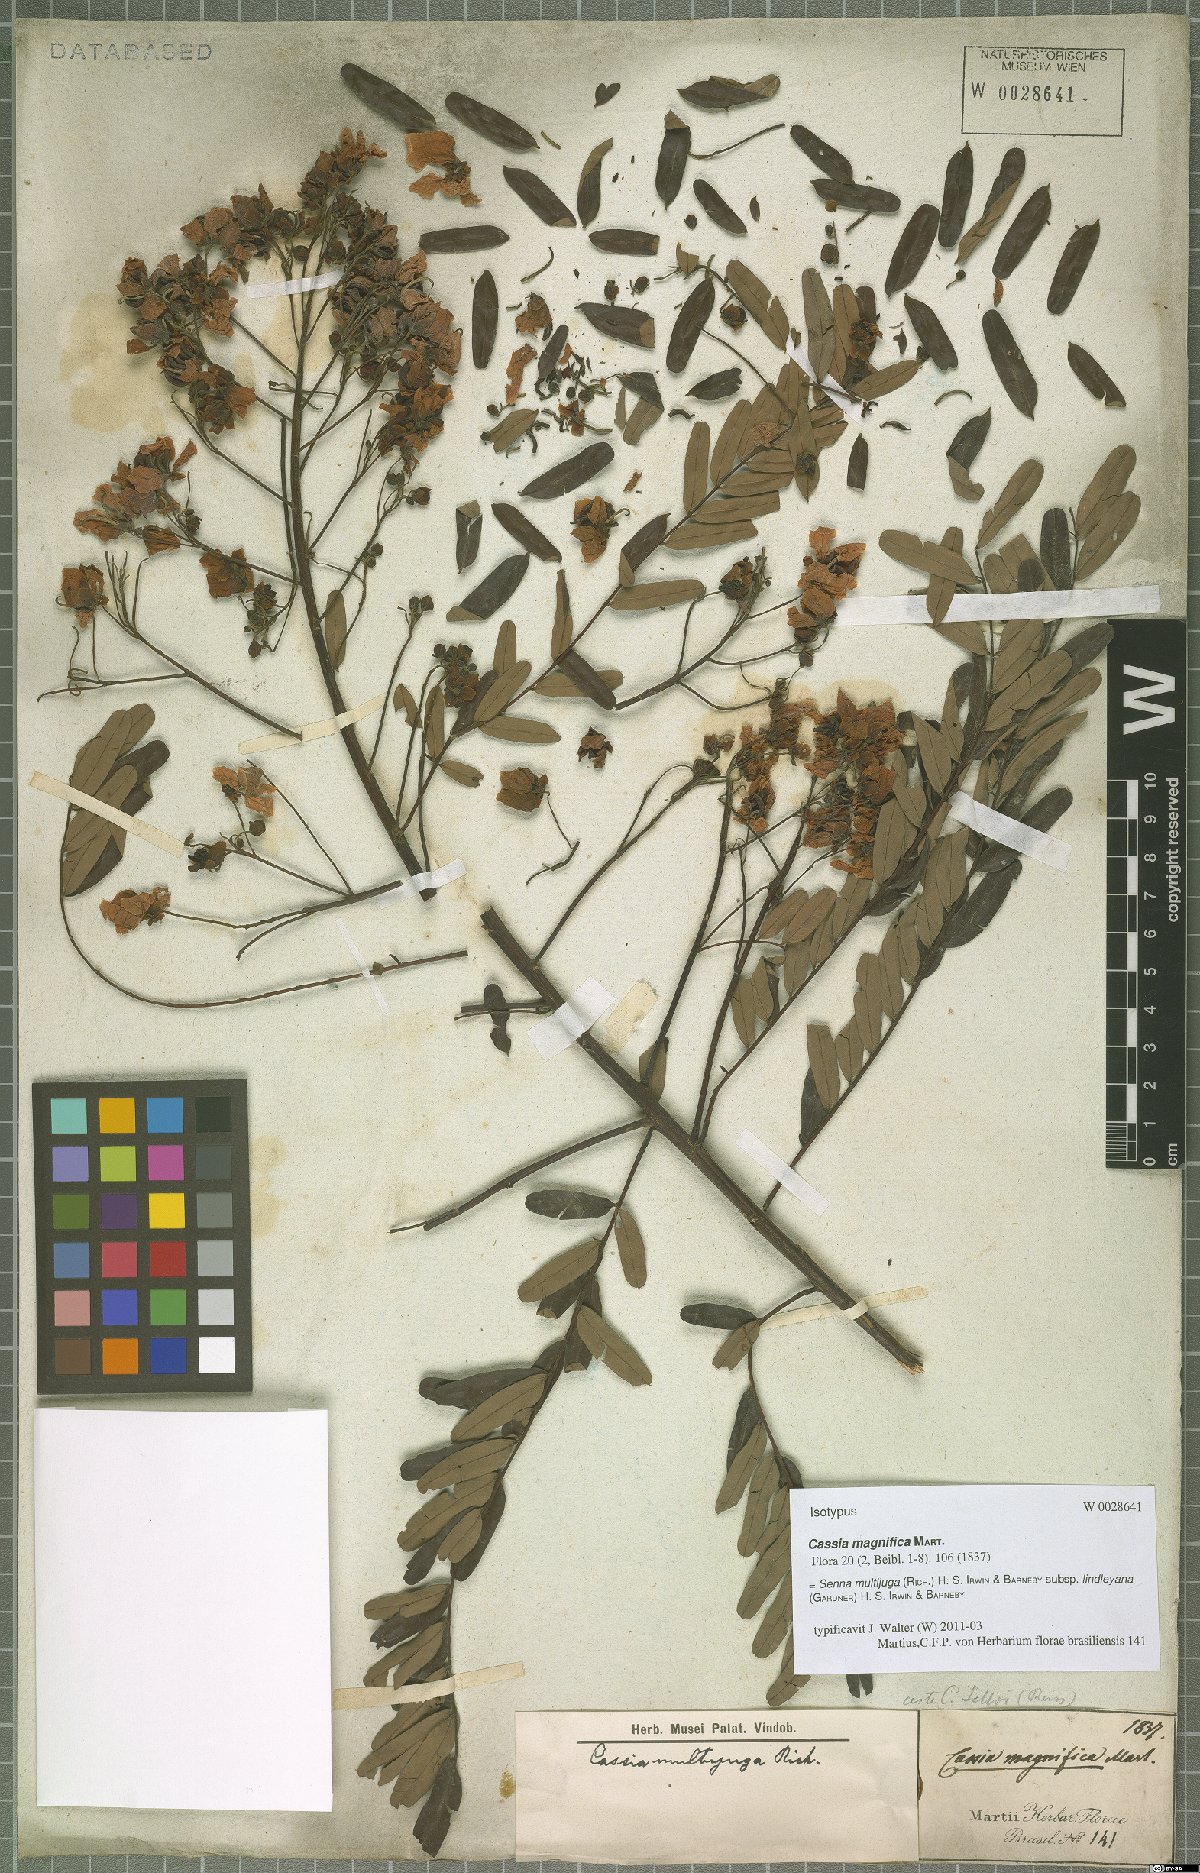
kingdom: Plantae
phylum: Tracheophyta
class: Magnoliopsida
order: Fabales
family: Fabaceae
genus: Senna
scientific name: Senna multijuga
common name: False sicklepod
